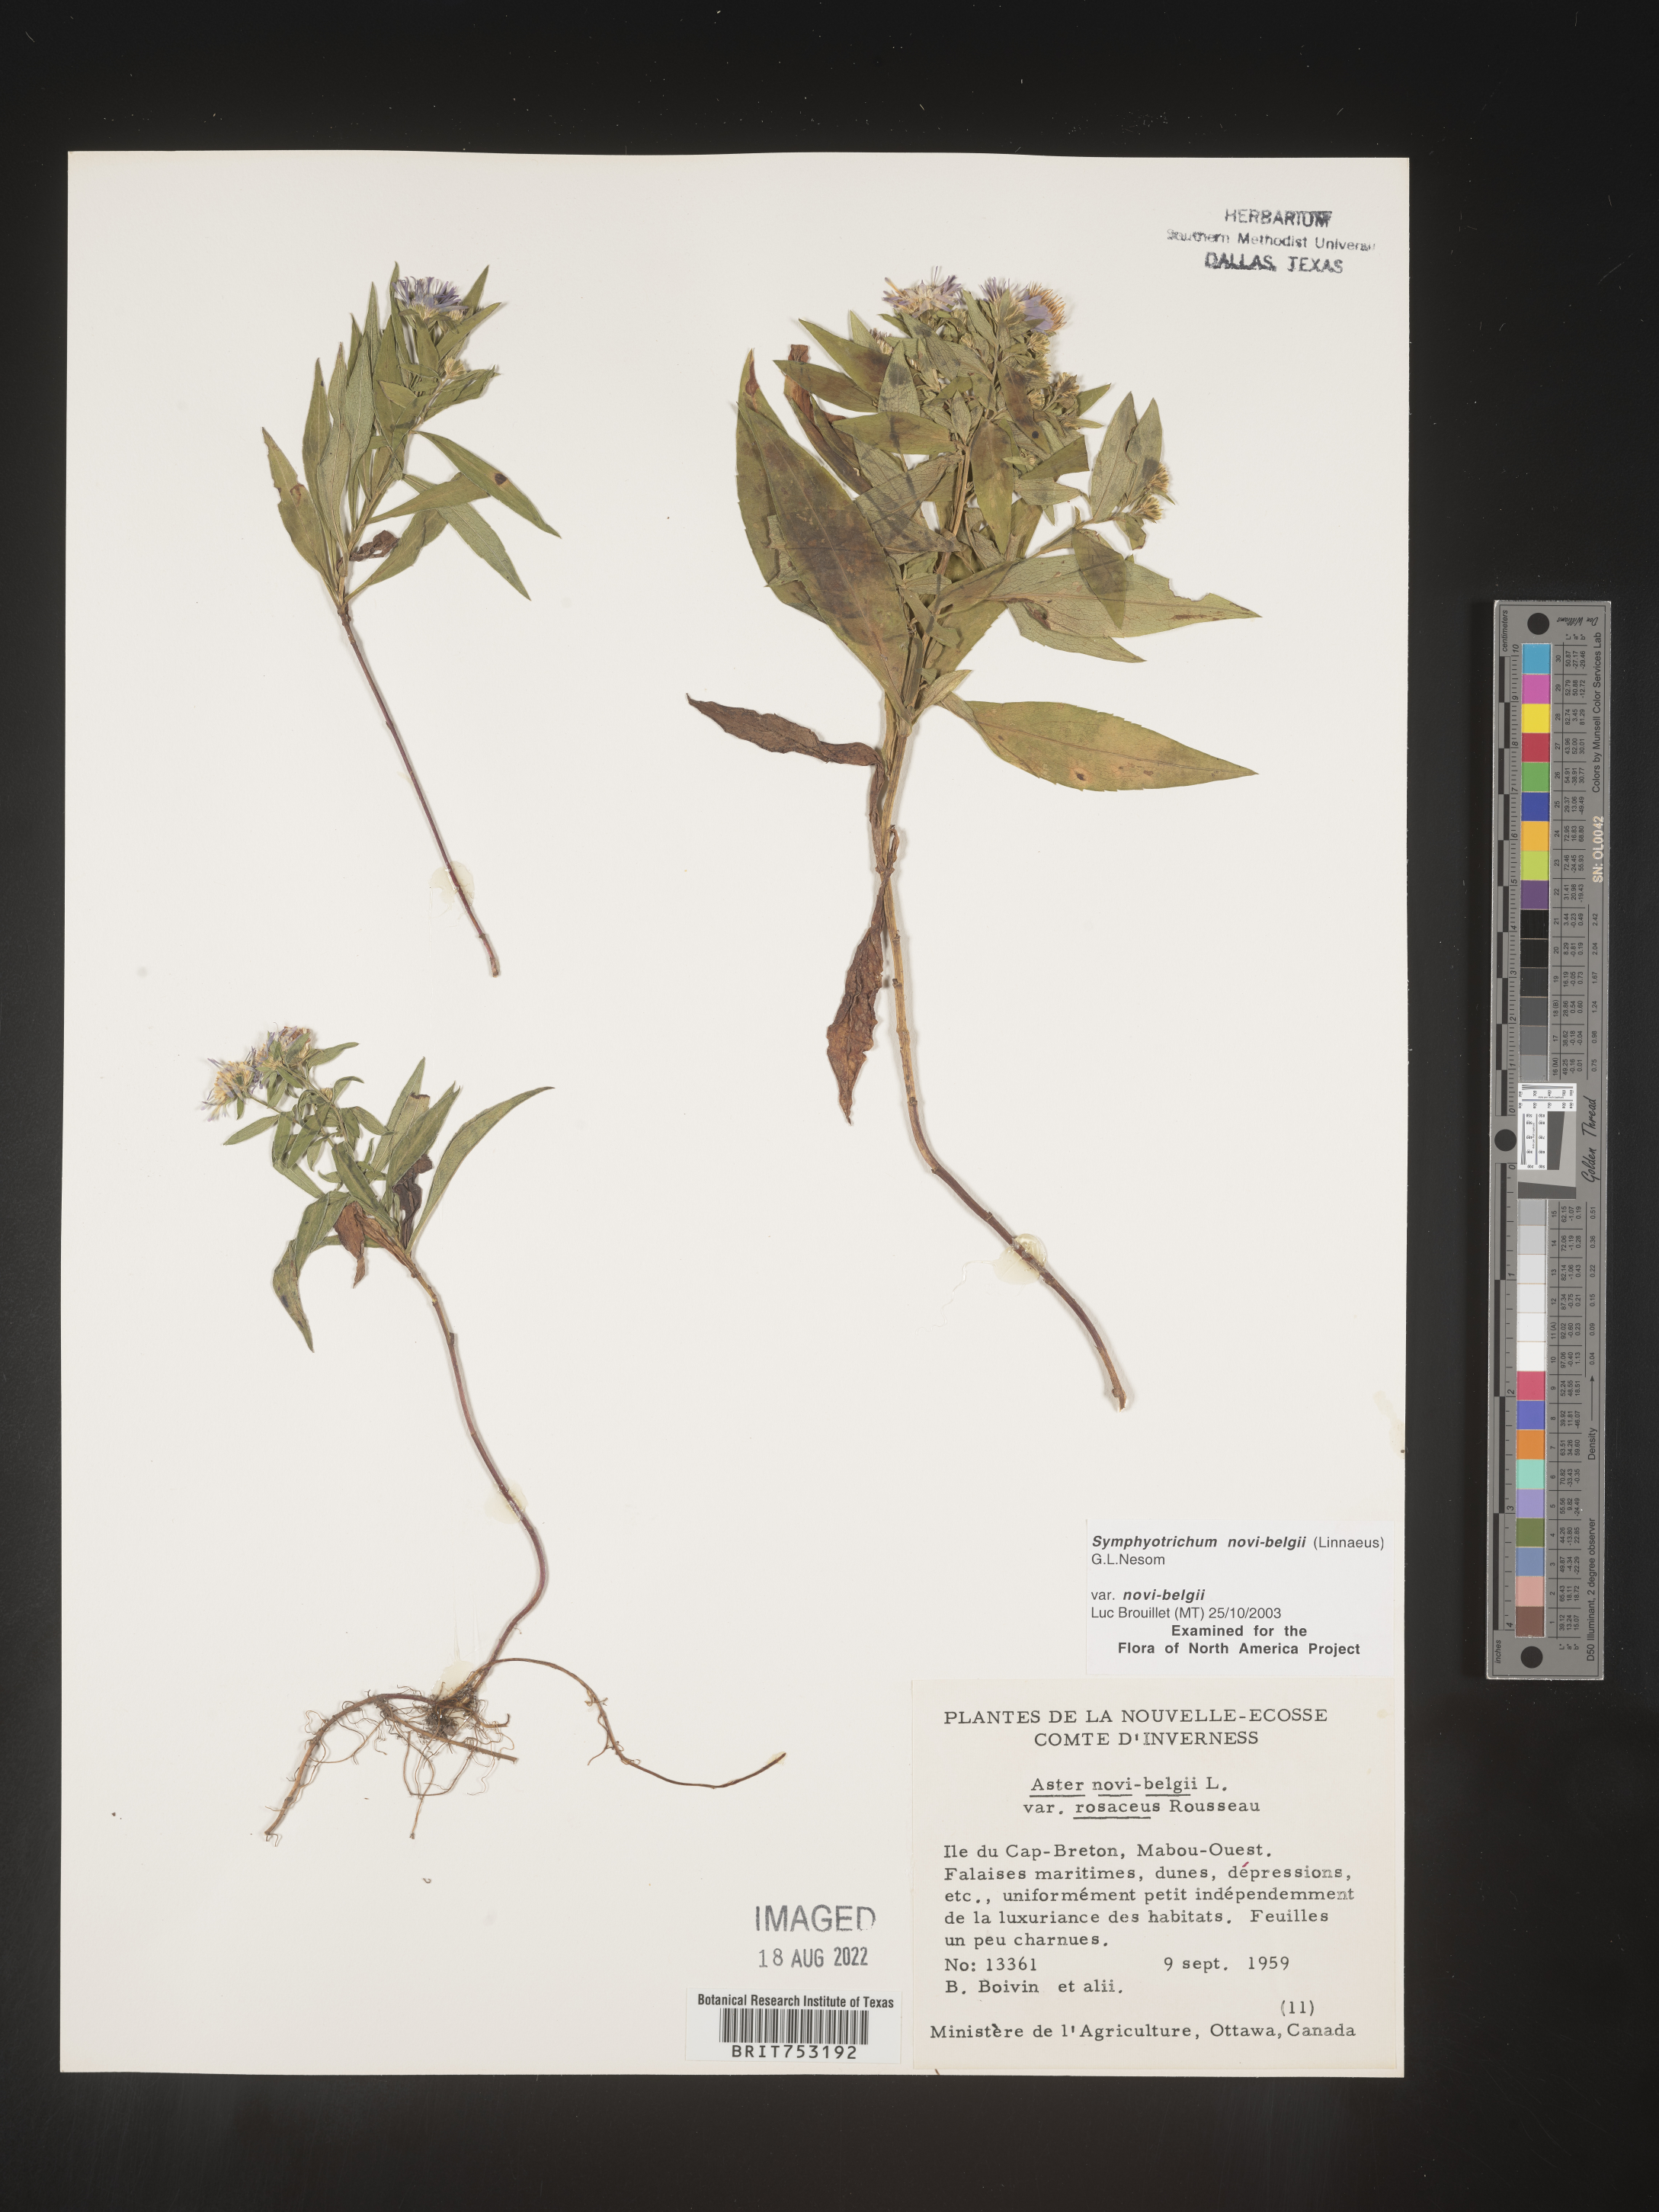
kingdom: Plantae
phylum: Tracheophyta
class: Magnoliopsida
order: Asterales
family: Asteraceae
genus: Symphyotrichum
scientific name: Symphyotrichum novi-belgii
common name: Michaelmas daisy
